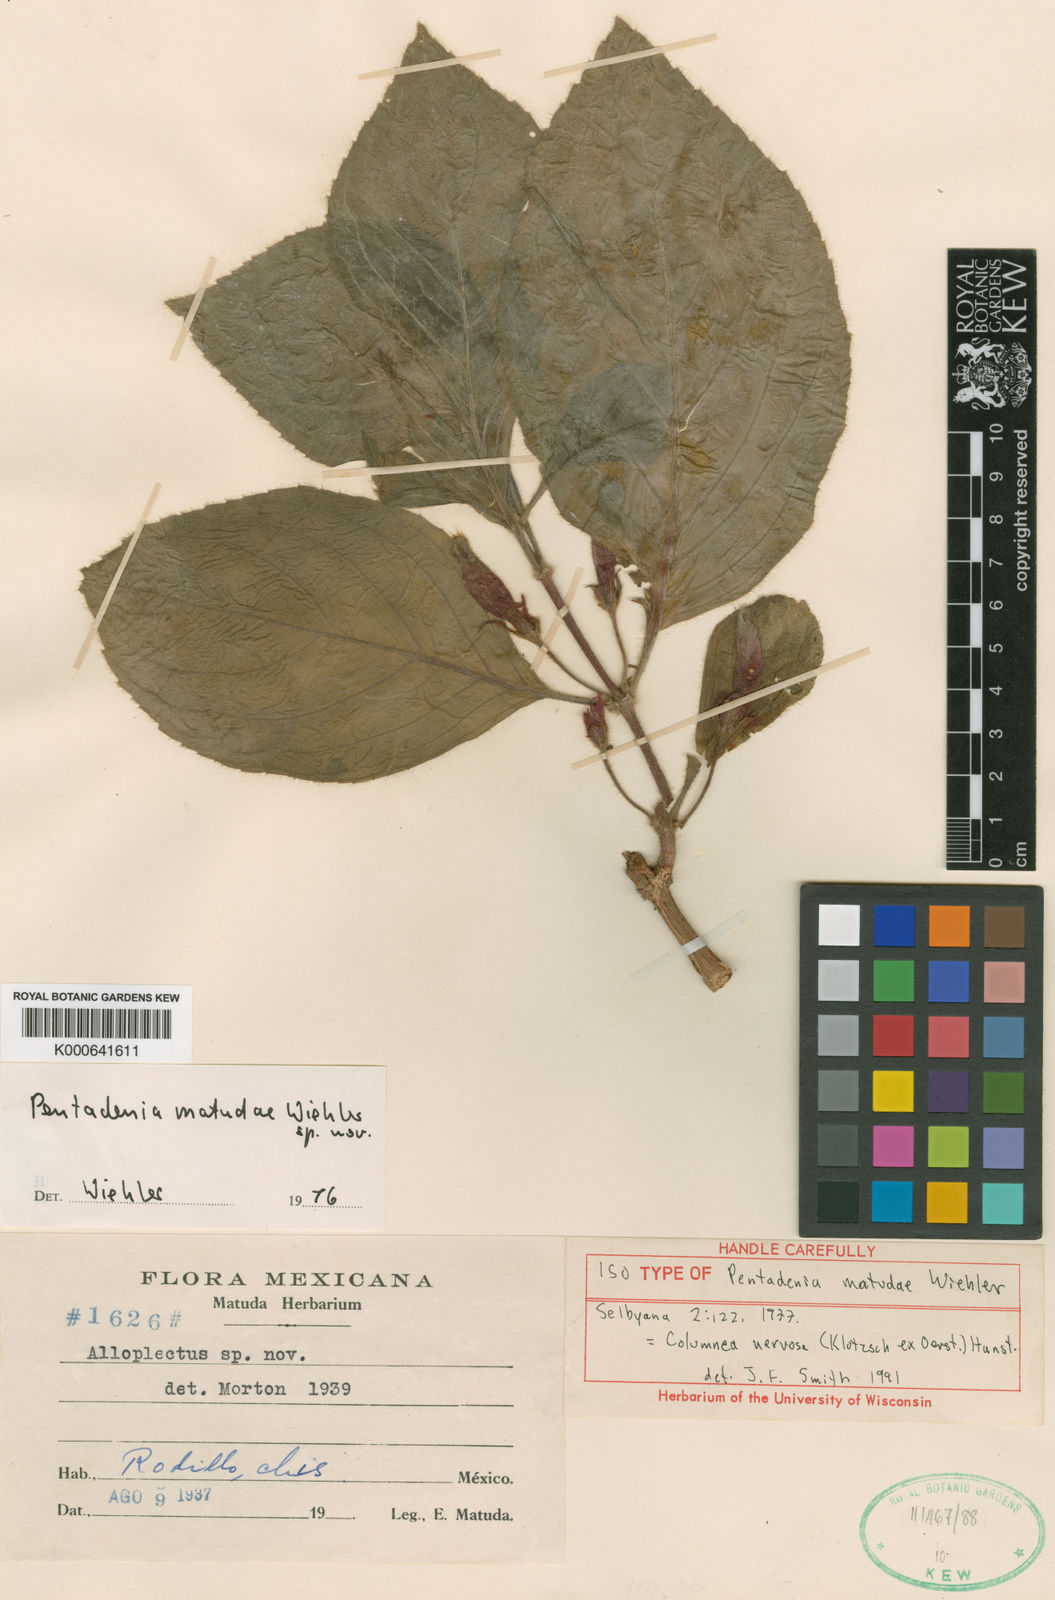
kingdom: Plantae
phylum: Tracheophyta
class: Magnoliopsida
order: Lamiales
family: Gesneriaceae
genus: Columnea
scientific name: Columnea matudae
